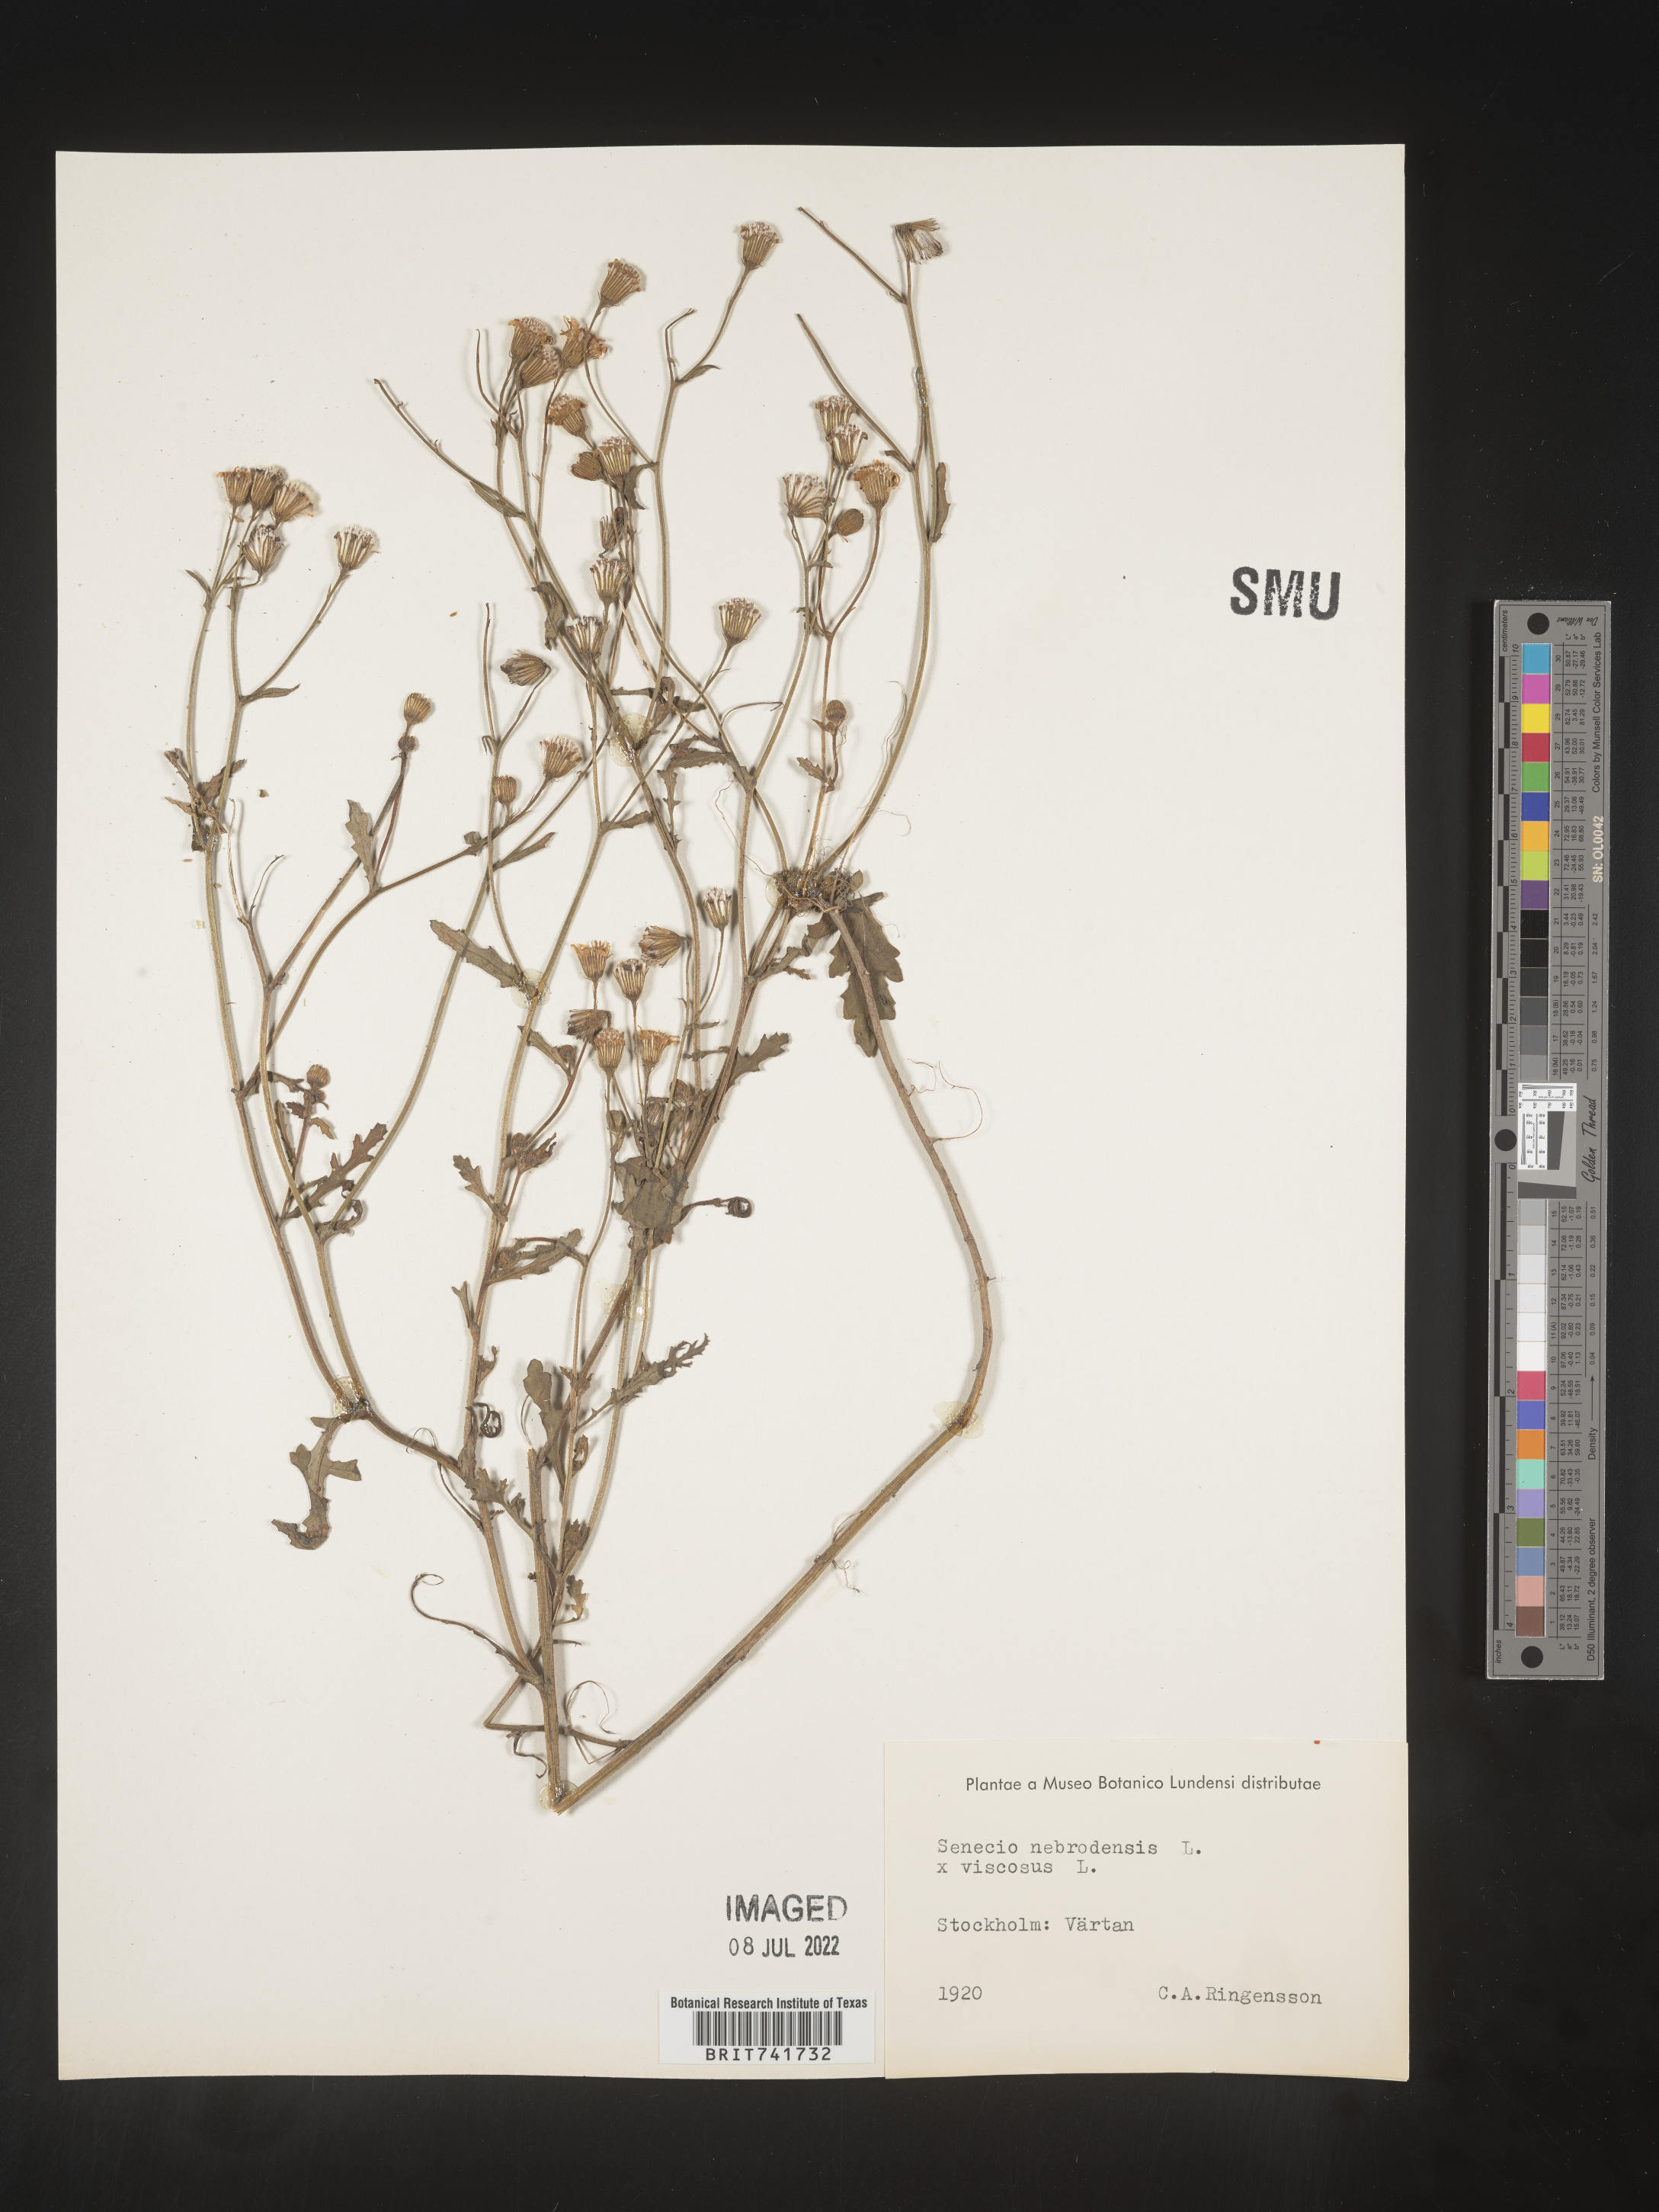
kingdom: Plantae
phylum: Tracheophyta
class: Magnoliopsida
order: Asterales
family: Asteraceae
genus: Senecio
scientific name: Senecio
